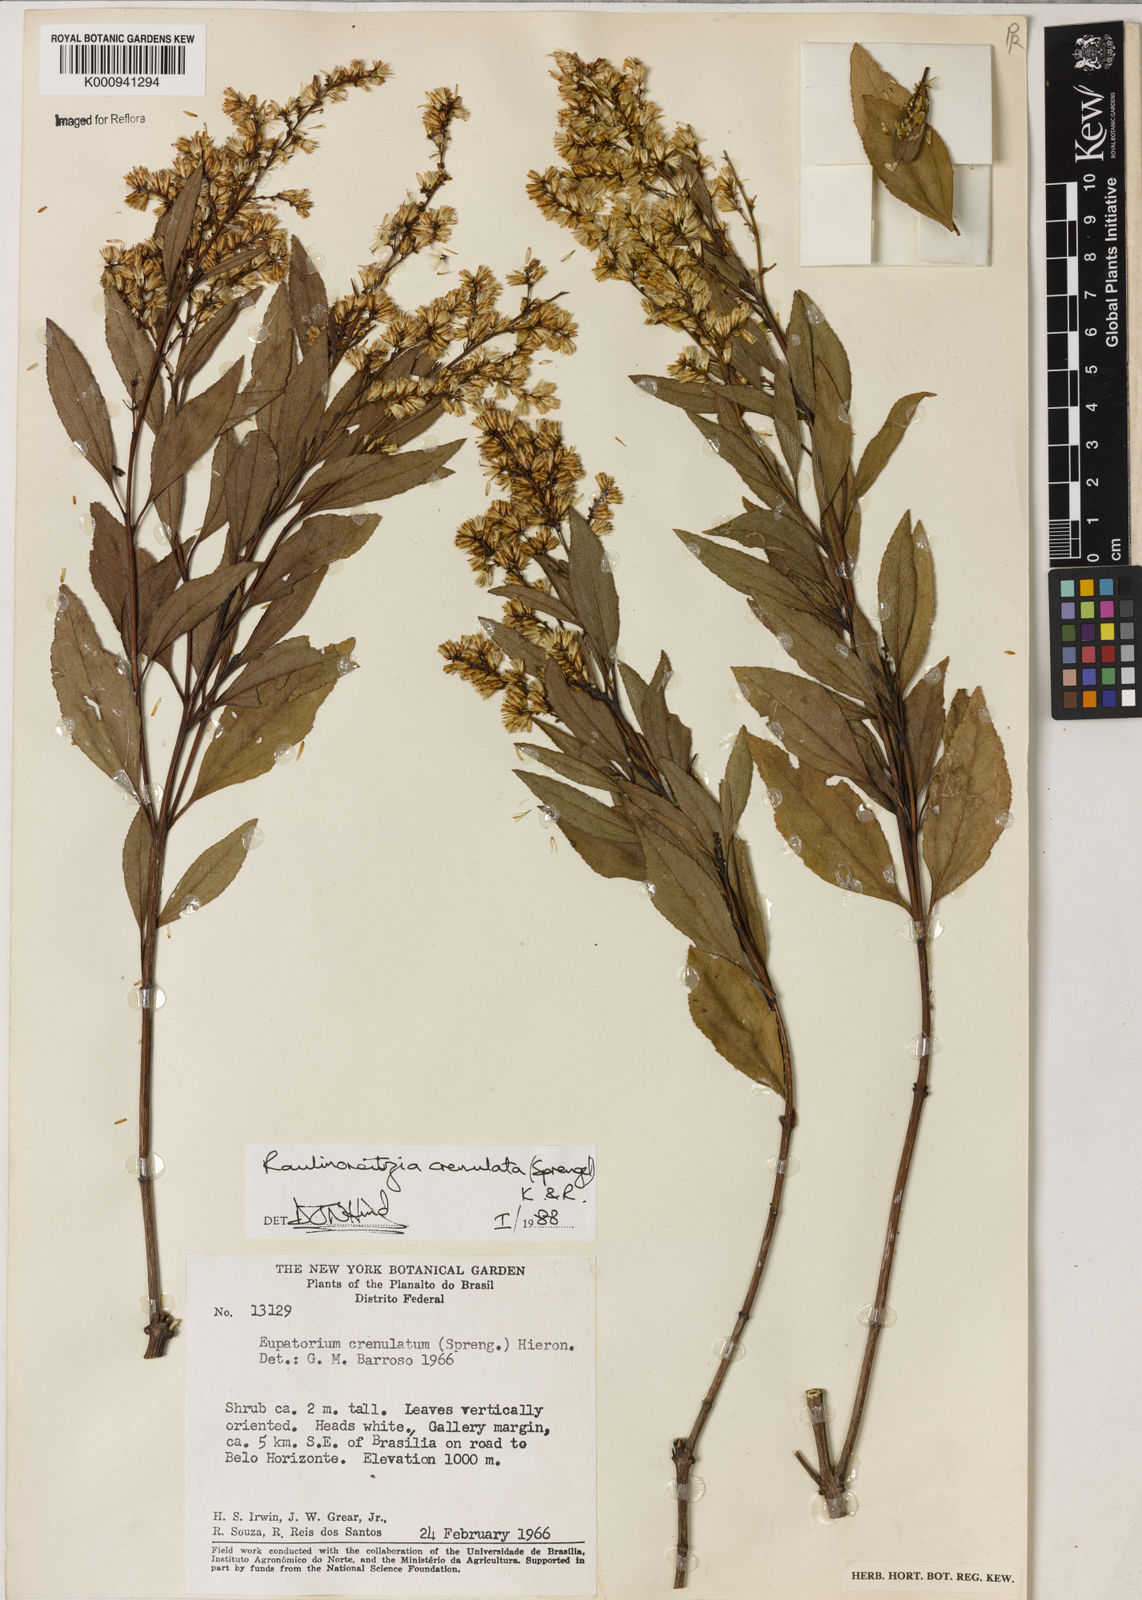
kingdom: Plantae
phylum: Tracheophyta
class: Magnoliopsida
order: Asterales
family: Asteraceae
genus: Raulinoreitzia
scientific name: Raulinoreitzia crenulata
